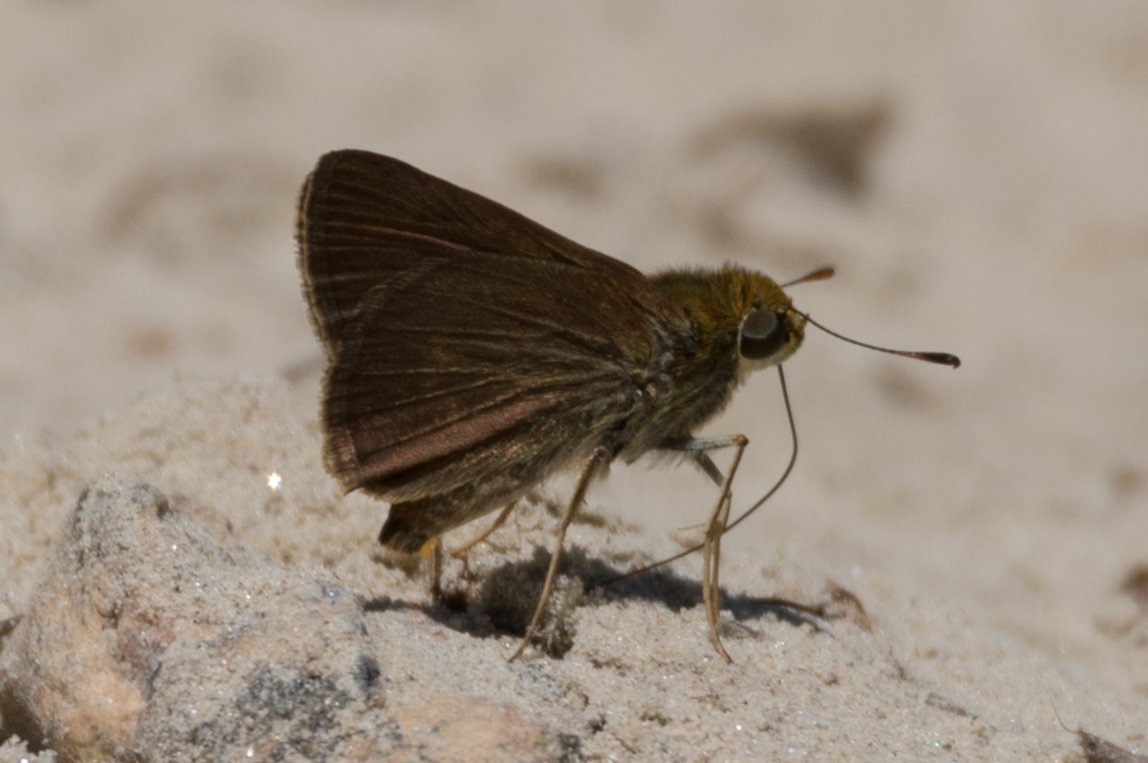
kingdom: Animalia
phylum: Arthropoda
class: Insecta
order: Lepidoptera
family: Hesperiidae
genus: Euphyes
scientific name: Euphyes vestris
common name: Dun Skipper
